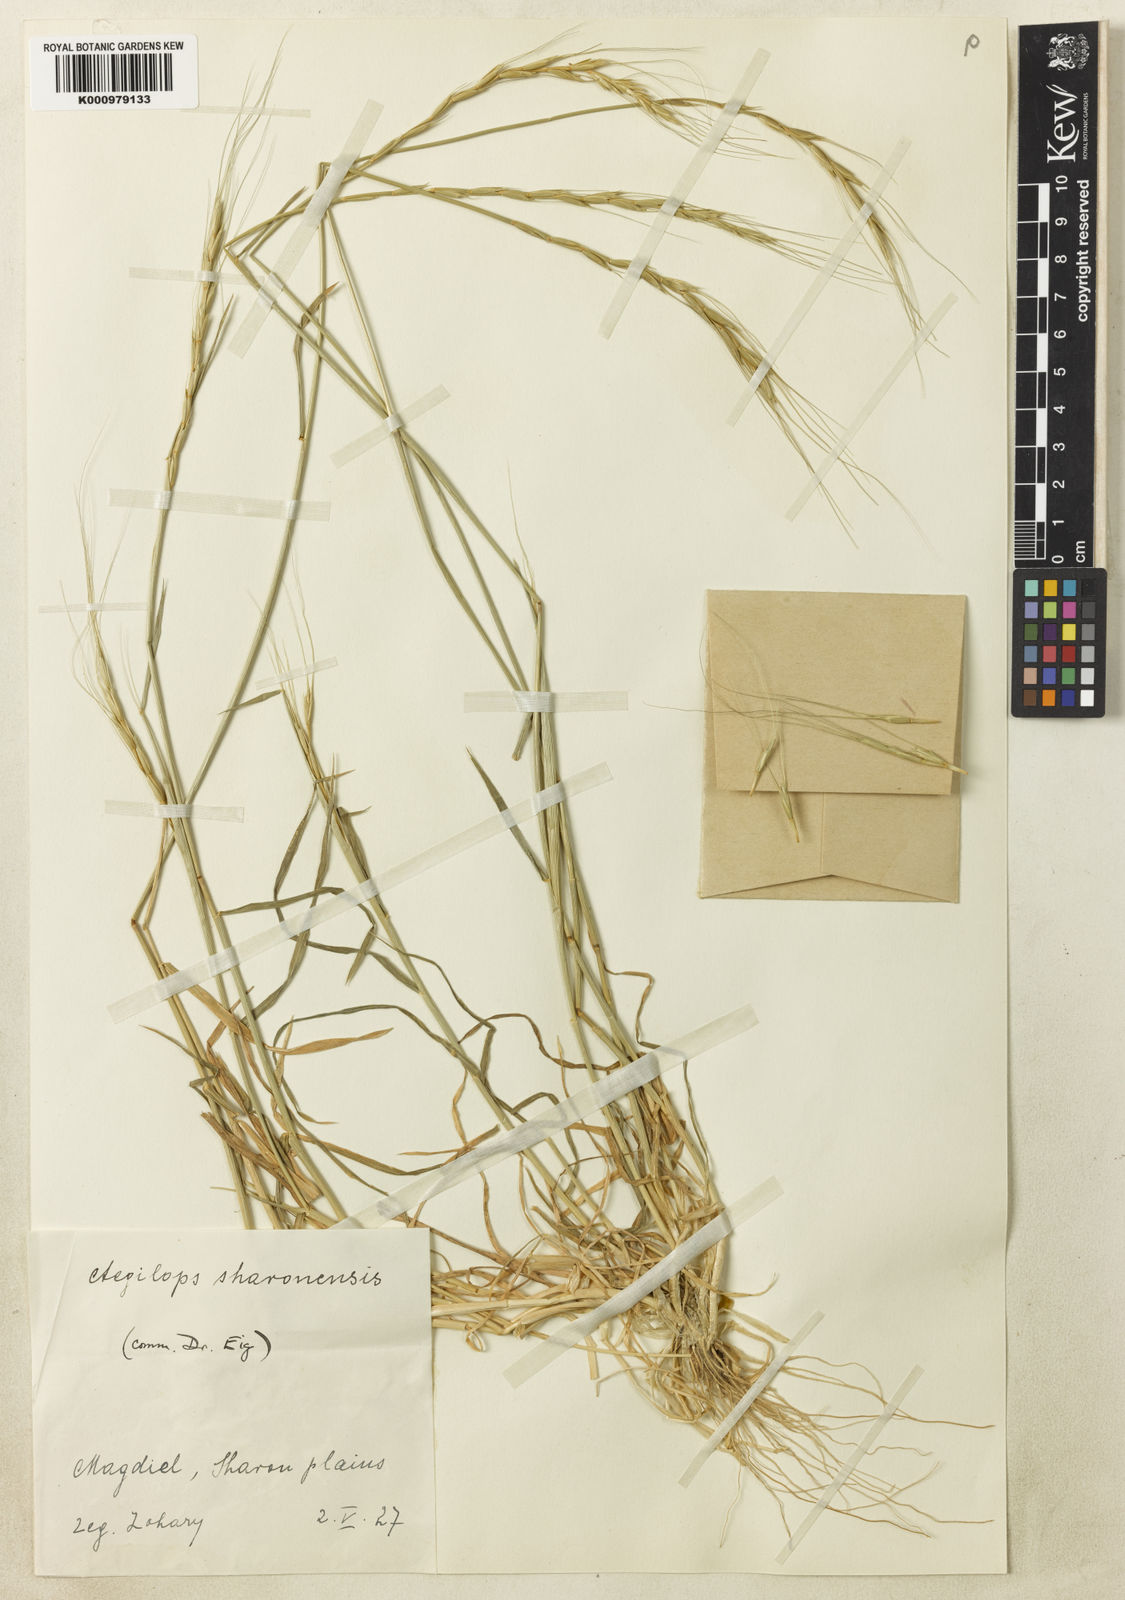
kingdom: Plantae
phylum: Tracheophyta
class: Liliopsida
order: Poales
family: Poaceae
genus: Aegilops
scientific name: Aegilops sharonensis
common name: Sharon goatgrass
